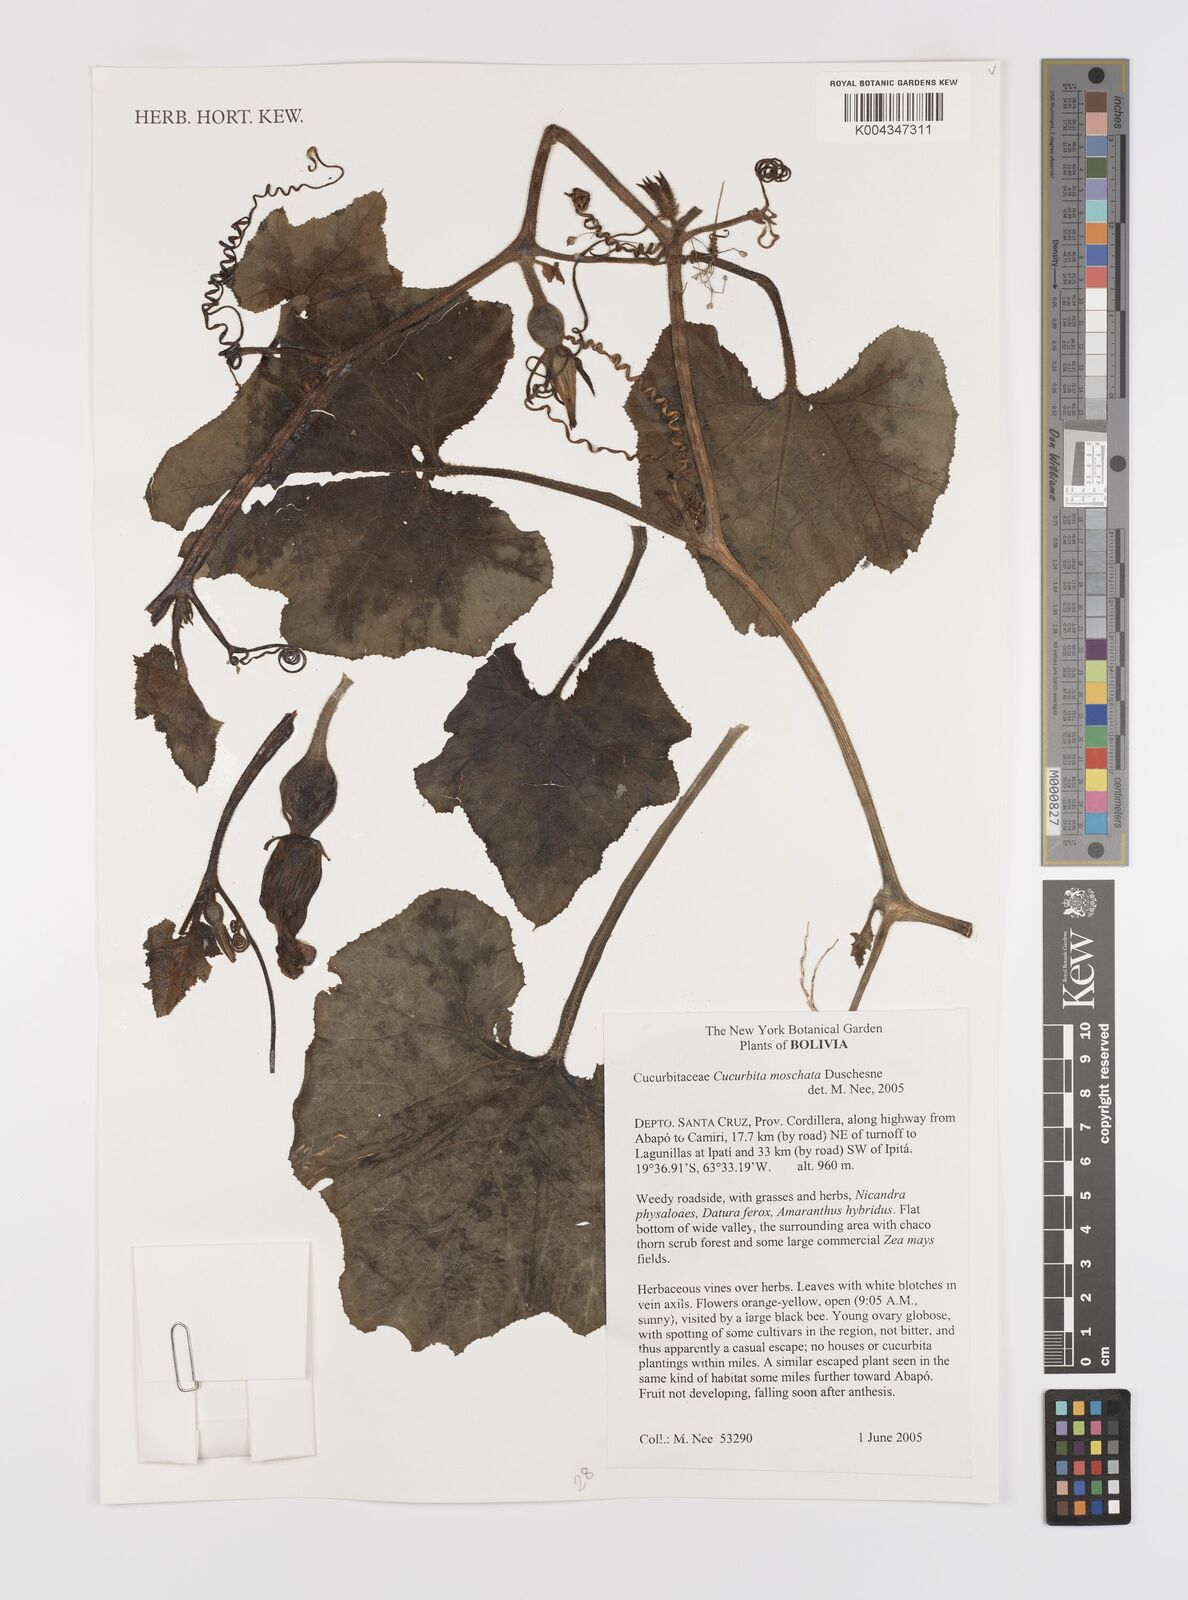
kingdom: Plantae
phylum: Tracheophyta
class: Magnoliopsida
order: Cucurbitales
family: Cucurbitaceae
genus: Cucurbita
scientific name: Cucurbita moschata
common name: Squash / pumpkin
